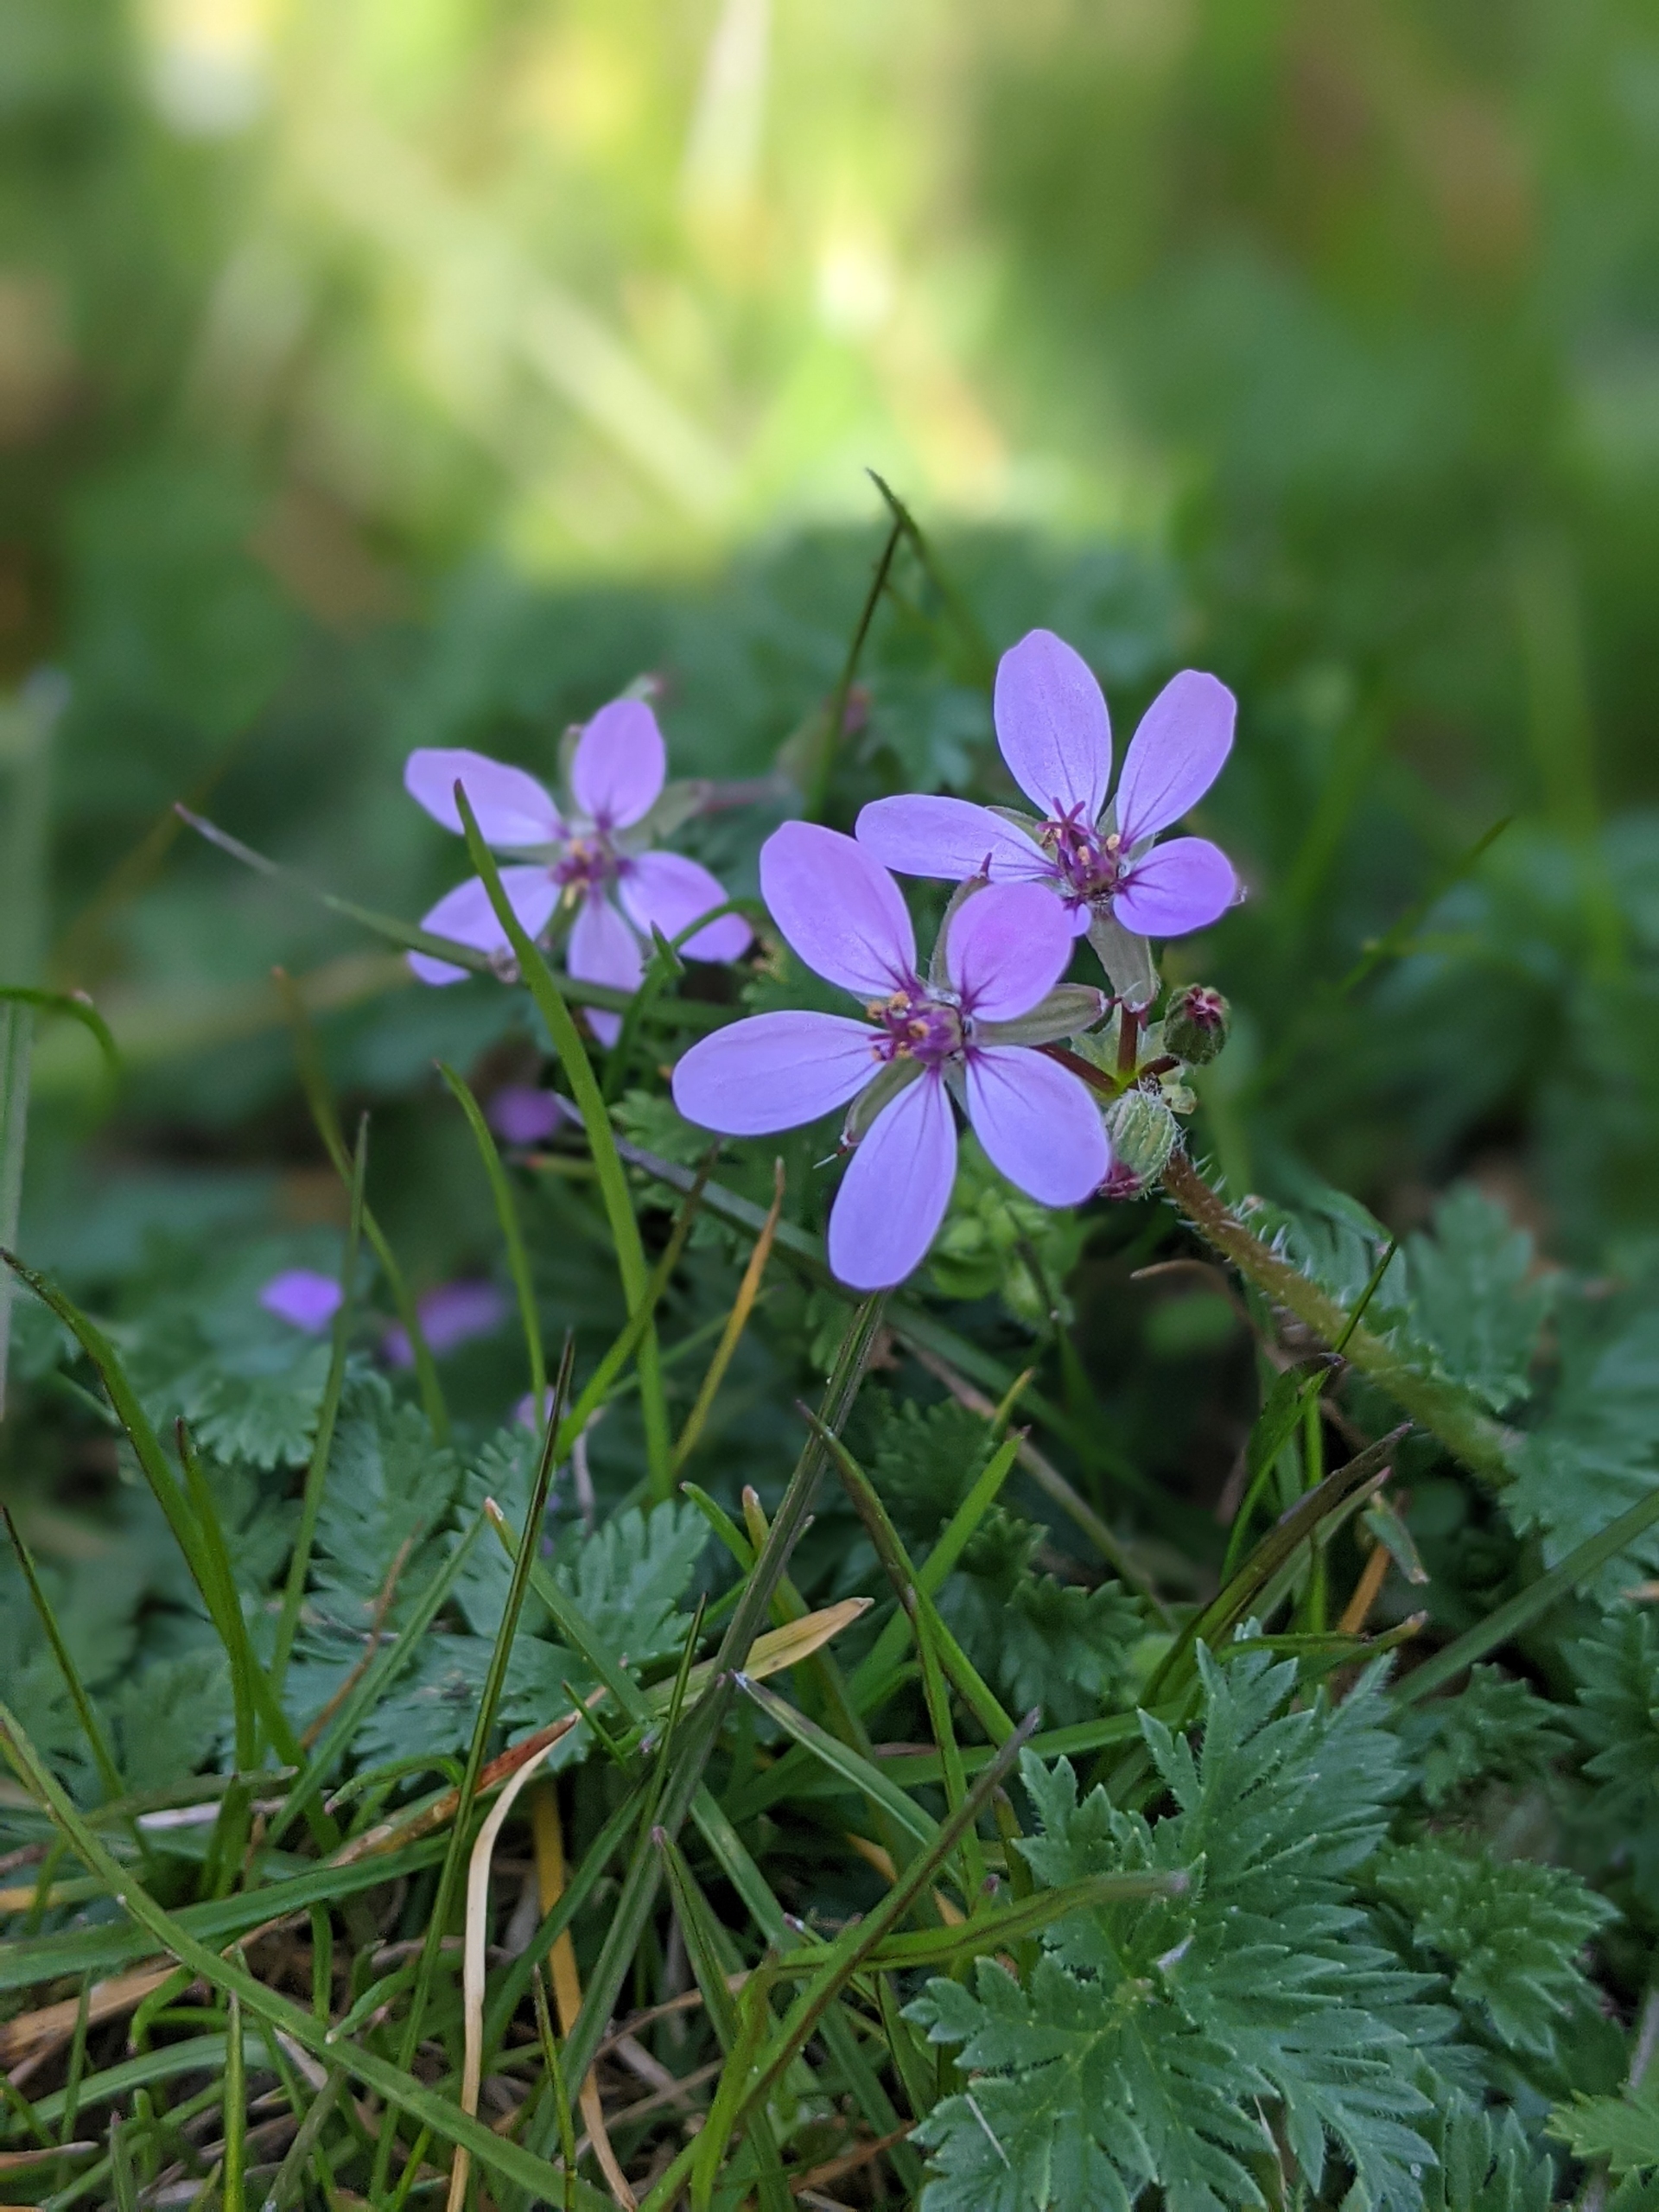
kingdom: Plantae
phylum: Tracheophyta
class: Magnoliopsida
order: Geraniales
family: Geraniaceae
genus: Erodium
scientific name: Erodium cicutarium
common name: Hejrenæb
